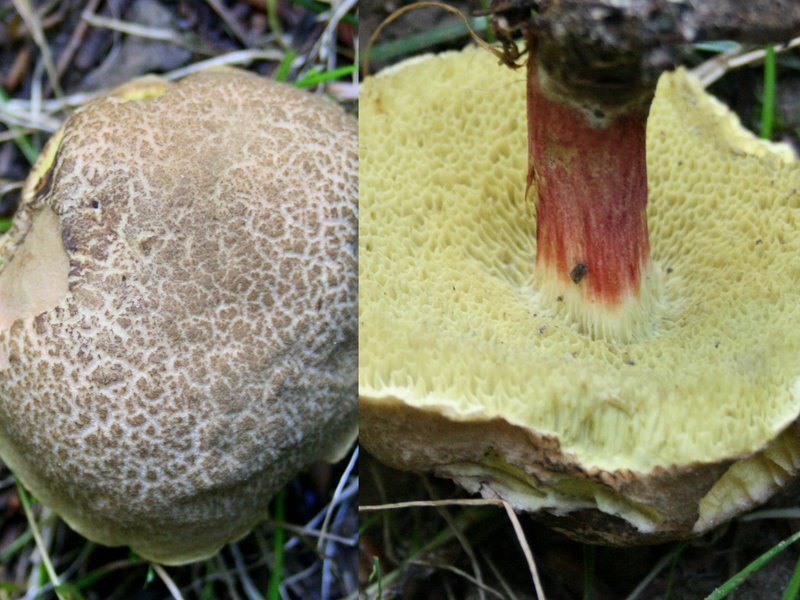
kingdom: Fungi
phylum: Basidiomycota
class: Agaricomycetes
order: Boletales
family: Boletaceae
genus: Xerocomellus
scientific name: Xerocomellus chrysenteron
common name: rødsprukken rørhat
